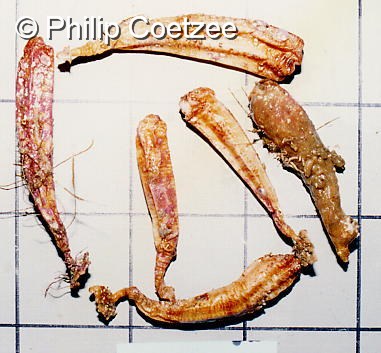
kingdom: Animalia
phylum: Chordata
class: Ascidiacea
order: Stolidobranchia
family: Styelidae
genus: Styela
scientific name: Styela angularis
